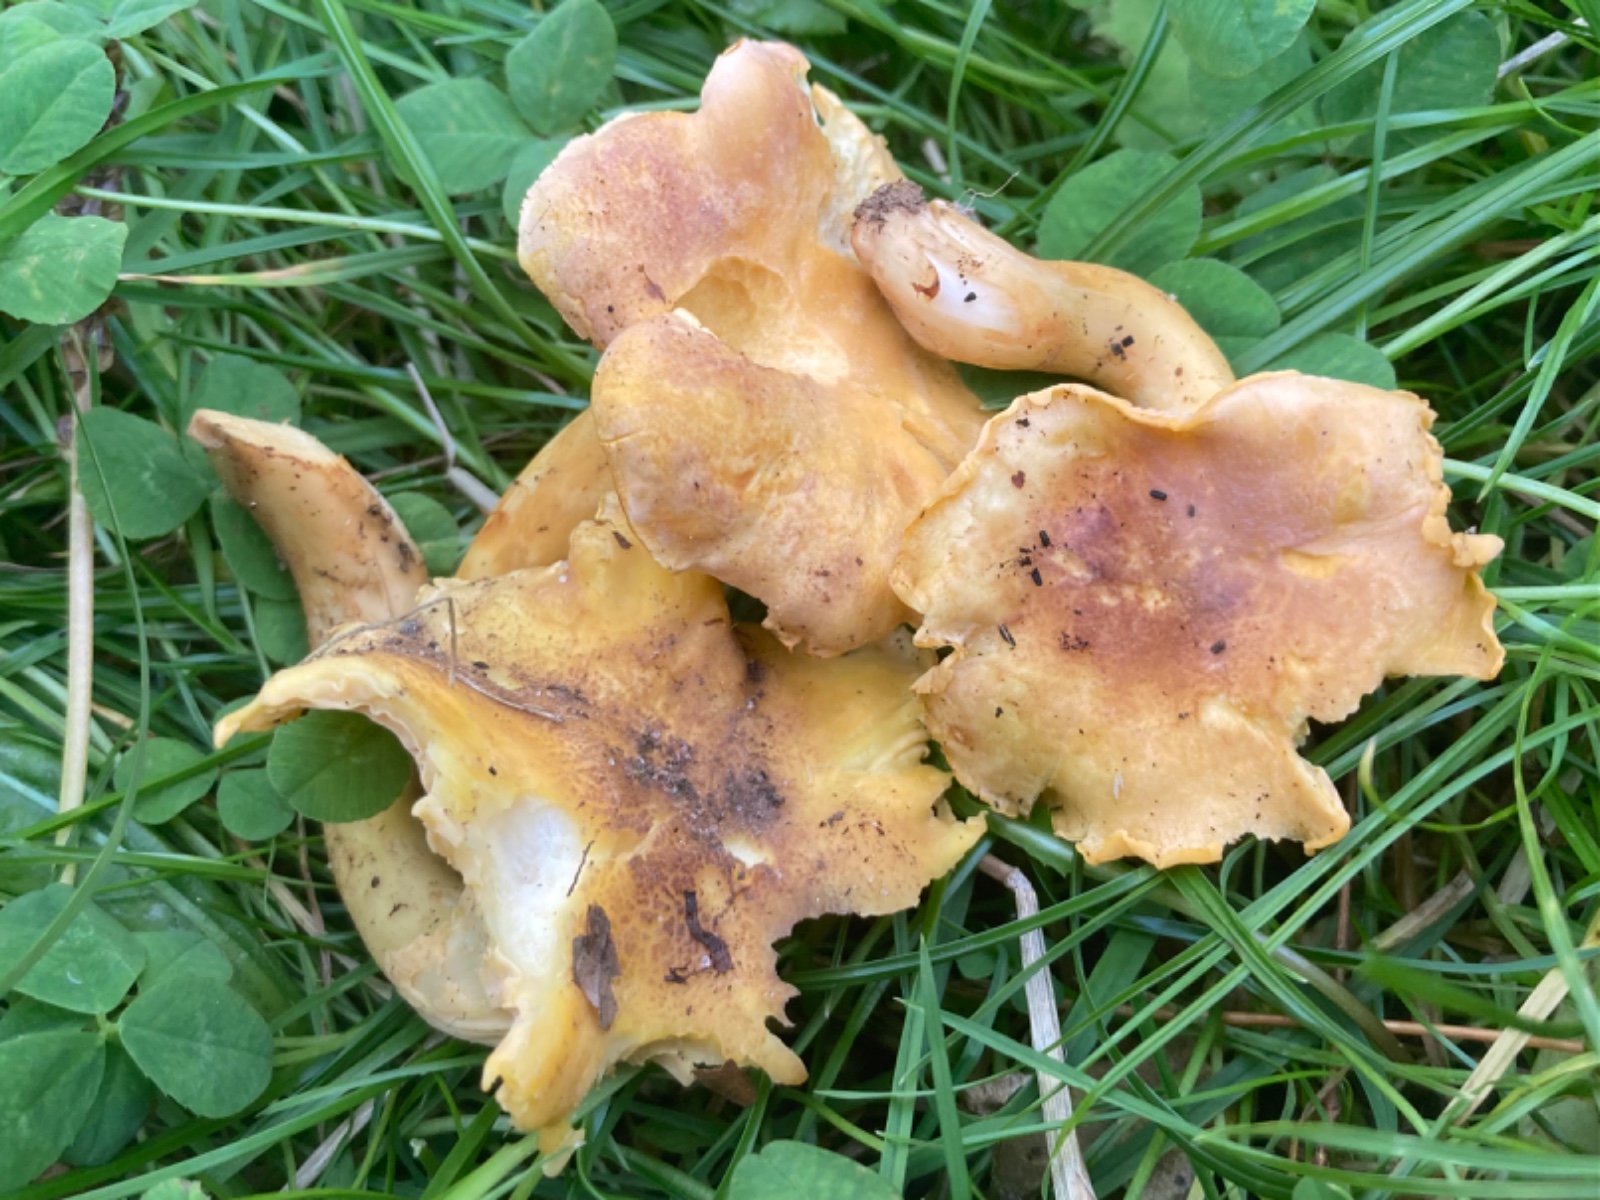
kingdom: Fungi
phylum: Basidiomycota
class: Agaricomycetes
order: Cantharellales
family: Hydnaceae
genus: Cantharellus
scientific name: Cantharellus amethysteus
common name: ametyst-kantarel
